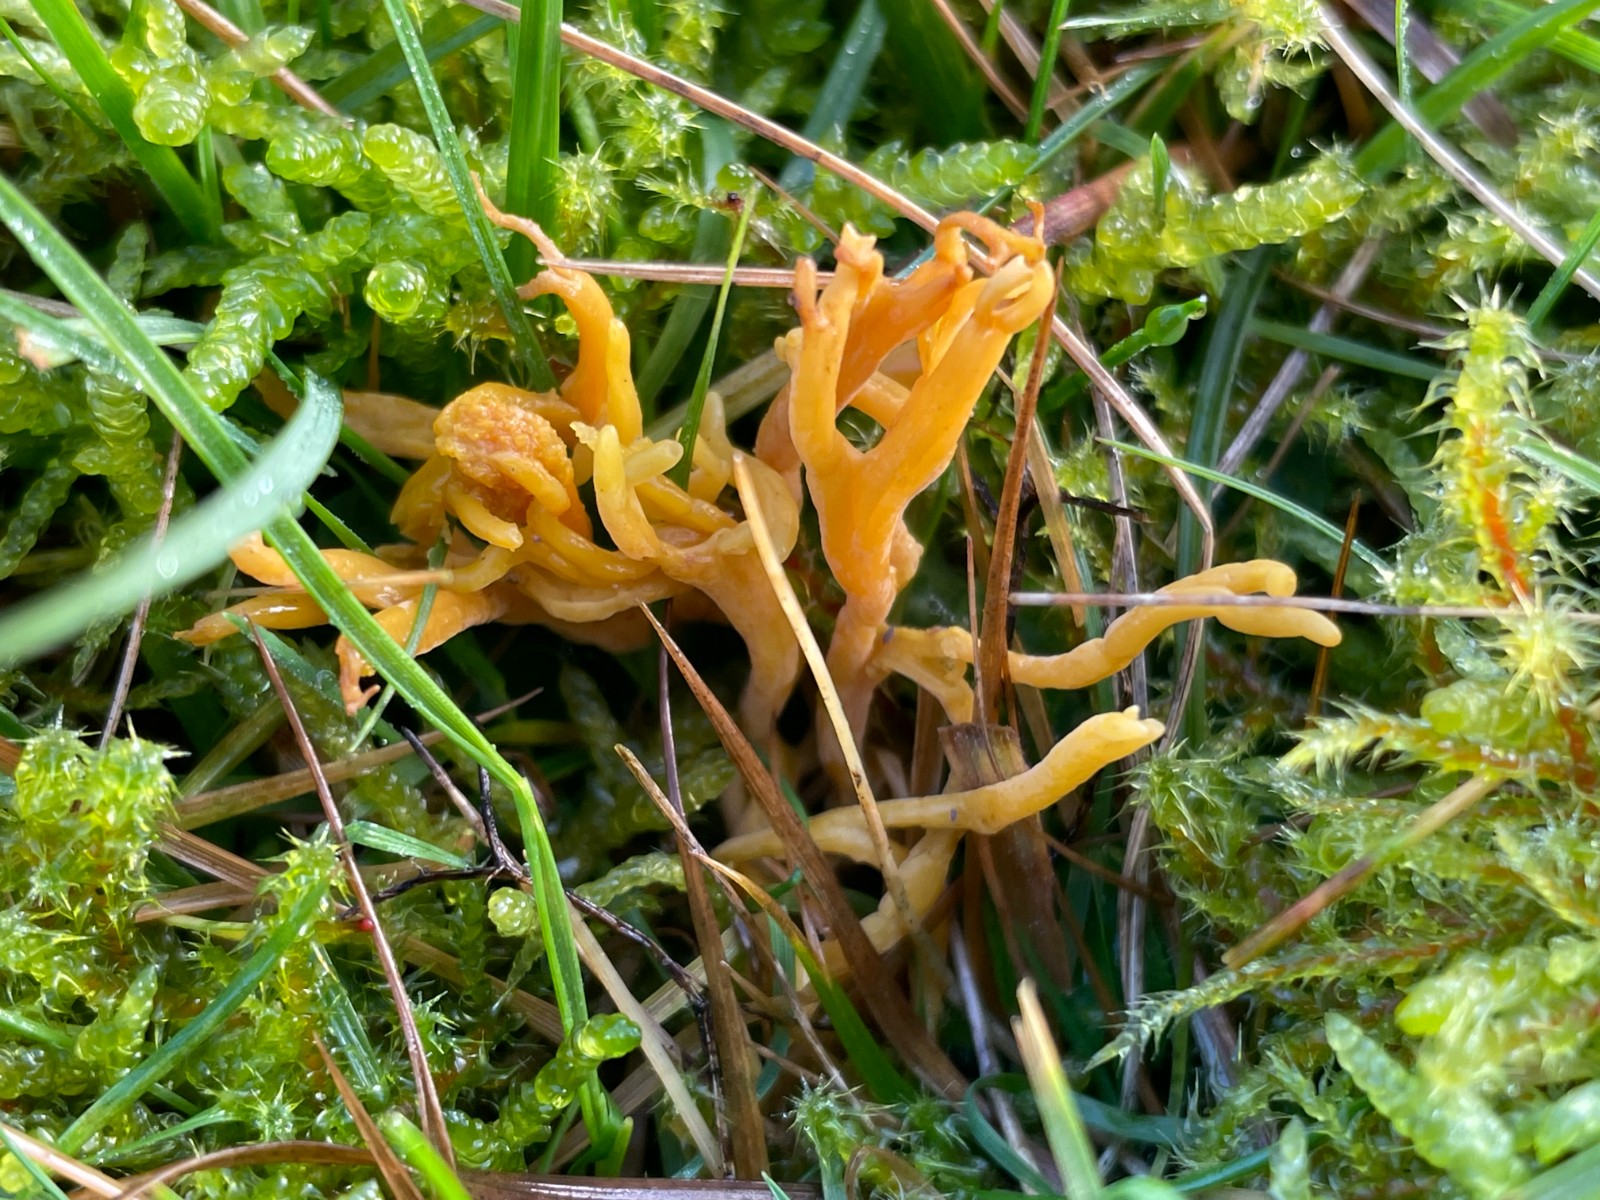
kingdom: Fungi
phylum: Basidiomycota
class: Agaricomycetes
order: Agaricales
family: Clavariaceae
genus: Clavulinopsis
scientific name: Clavulinopsis corniculata
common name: eng-køllesvamp
